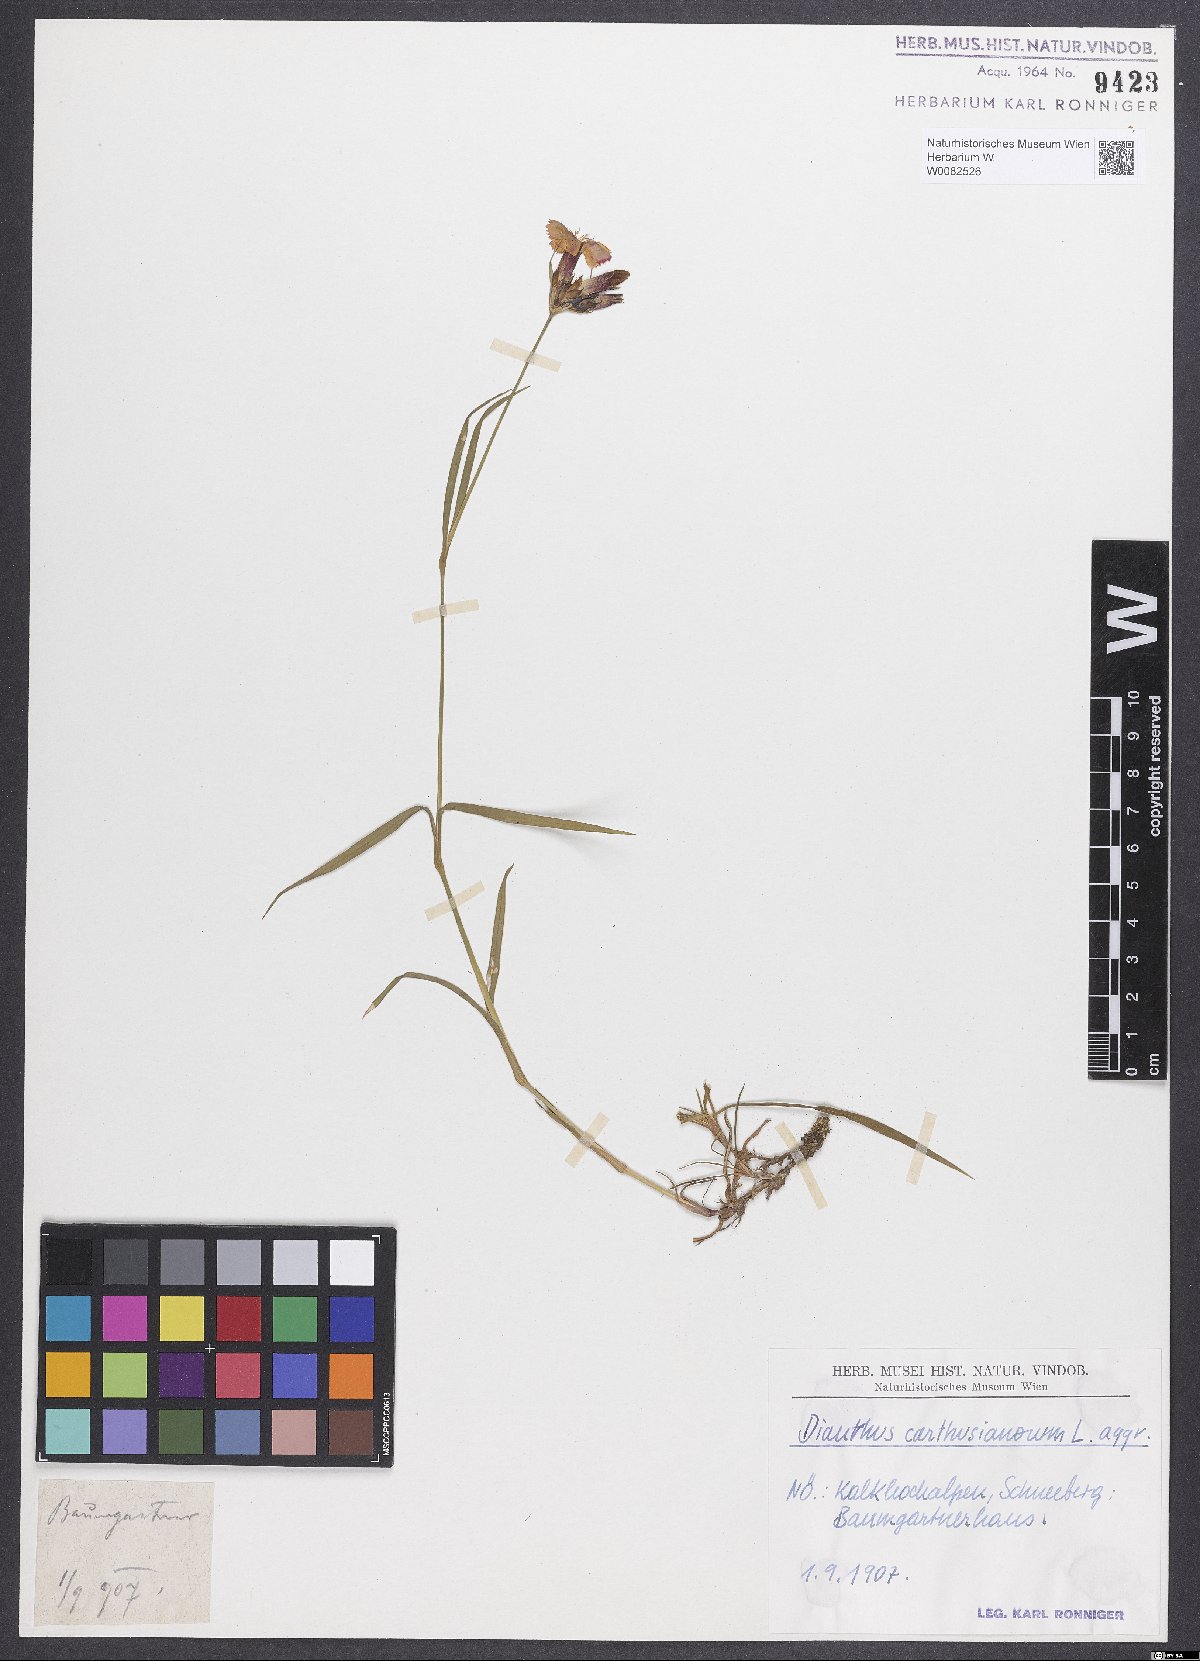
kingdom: Plantae
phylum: Tracheophyta
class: Magnoliopsida
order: Caryophyllales
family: Caryophyllaceae
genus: Dianthus
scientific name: Dianthus carthusianorum
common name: Carthusian pink
